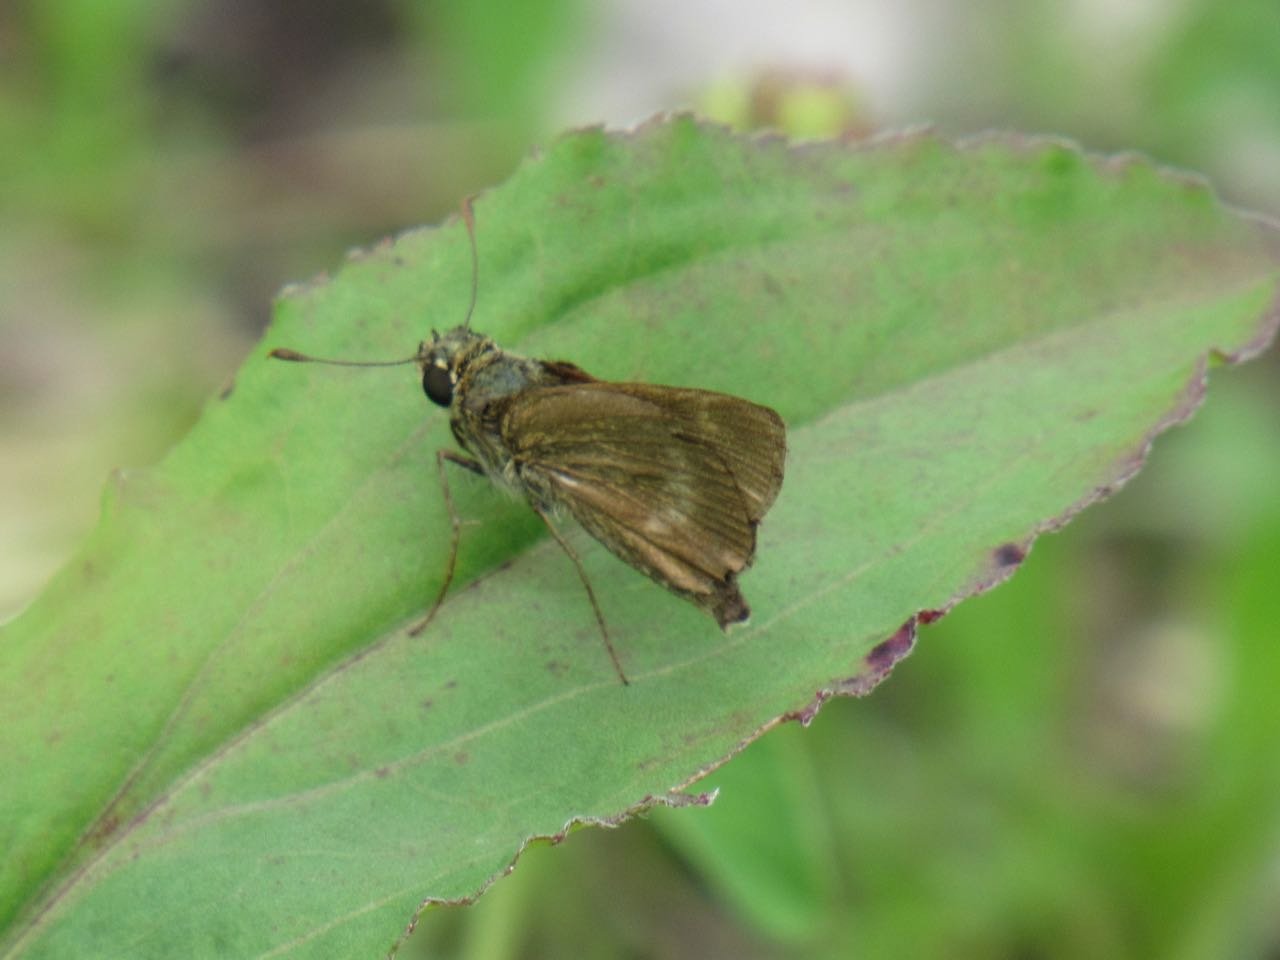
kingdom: Animalia
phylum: Arthropoda
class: Insecta
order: Lepidoptera
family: Hesperiidae
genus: Polites
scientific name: Polites egeremet
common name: Northern Broken-Dash
